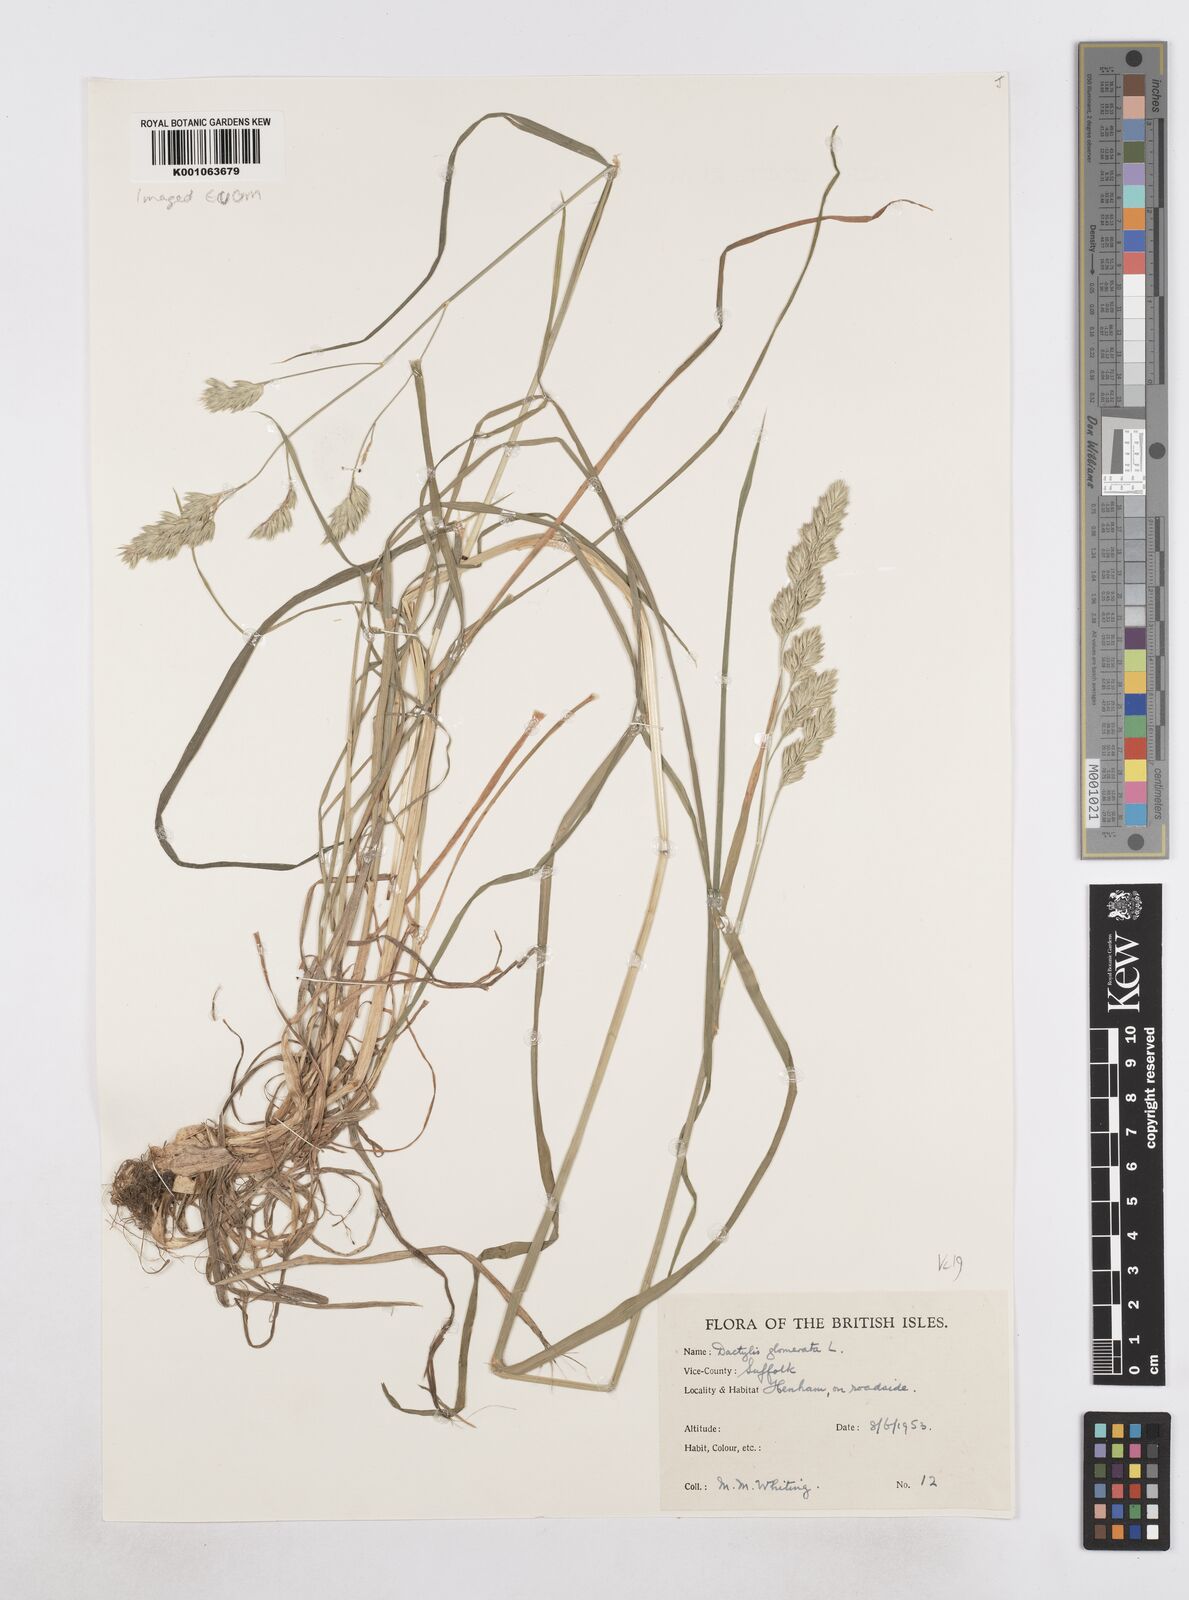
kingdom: Plantae
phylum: Tracheophyta
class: Liliopsida
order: Poales
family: Poaceae
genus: Dactylis
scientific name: Dactylis glomerata
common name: Orchardgrass
